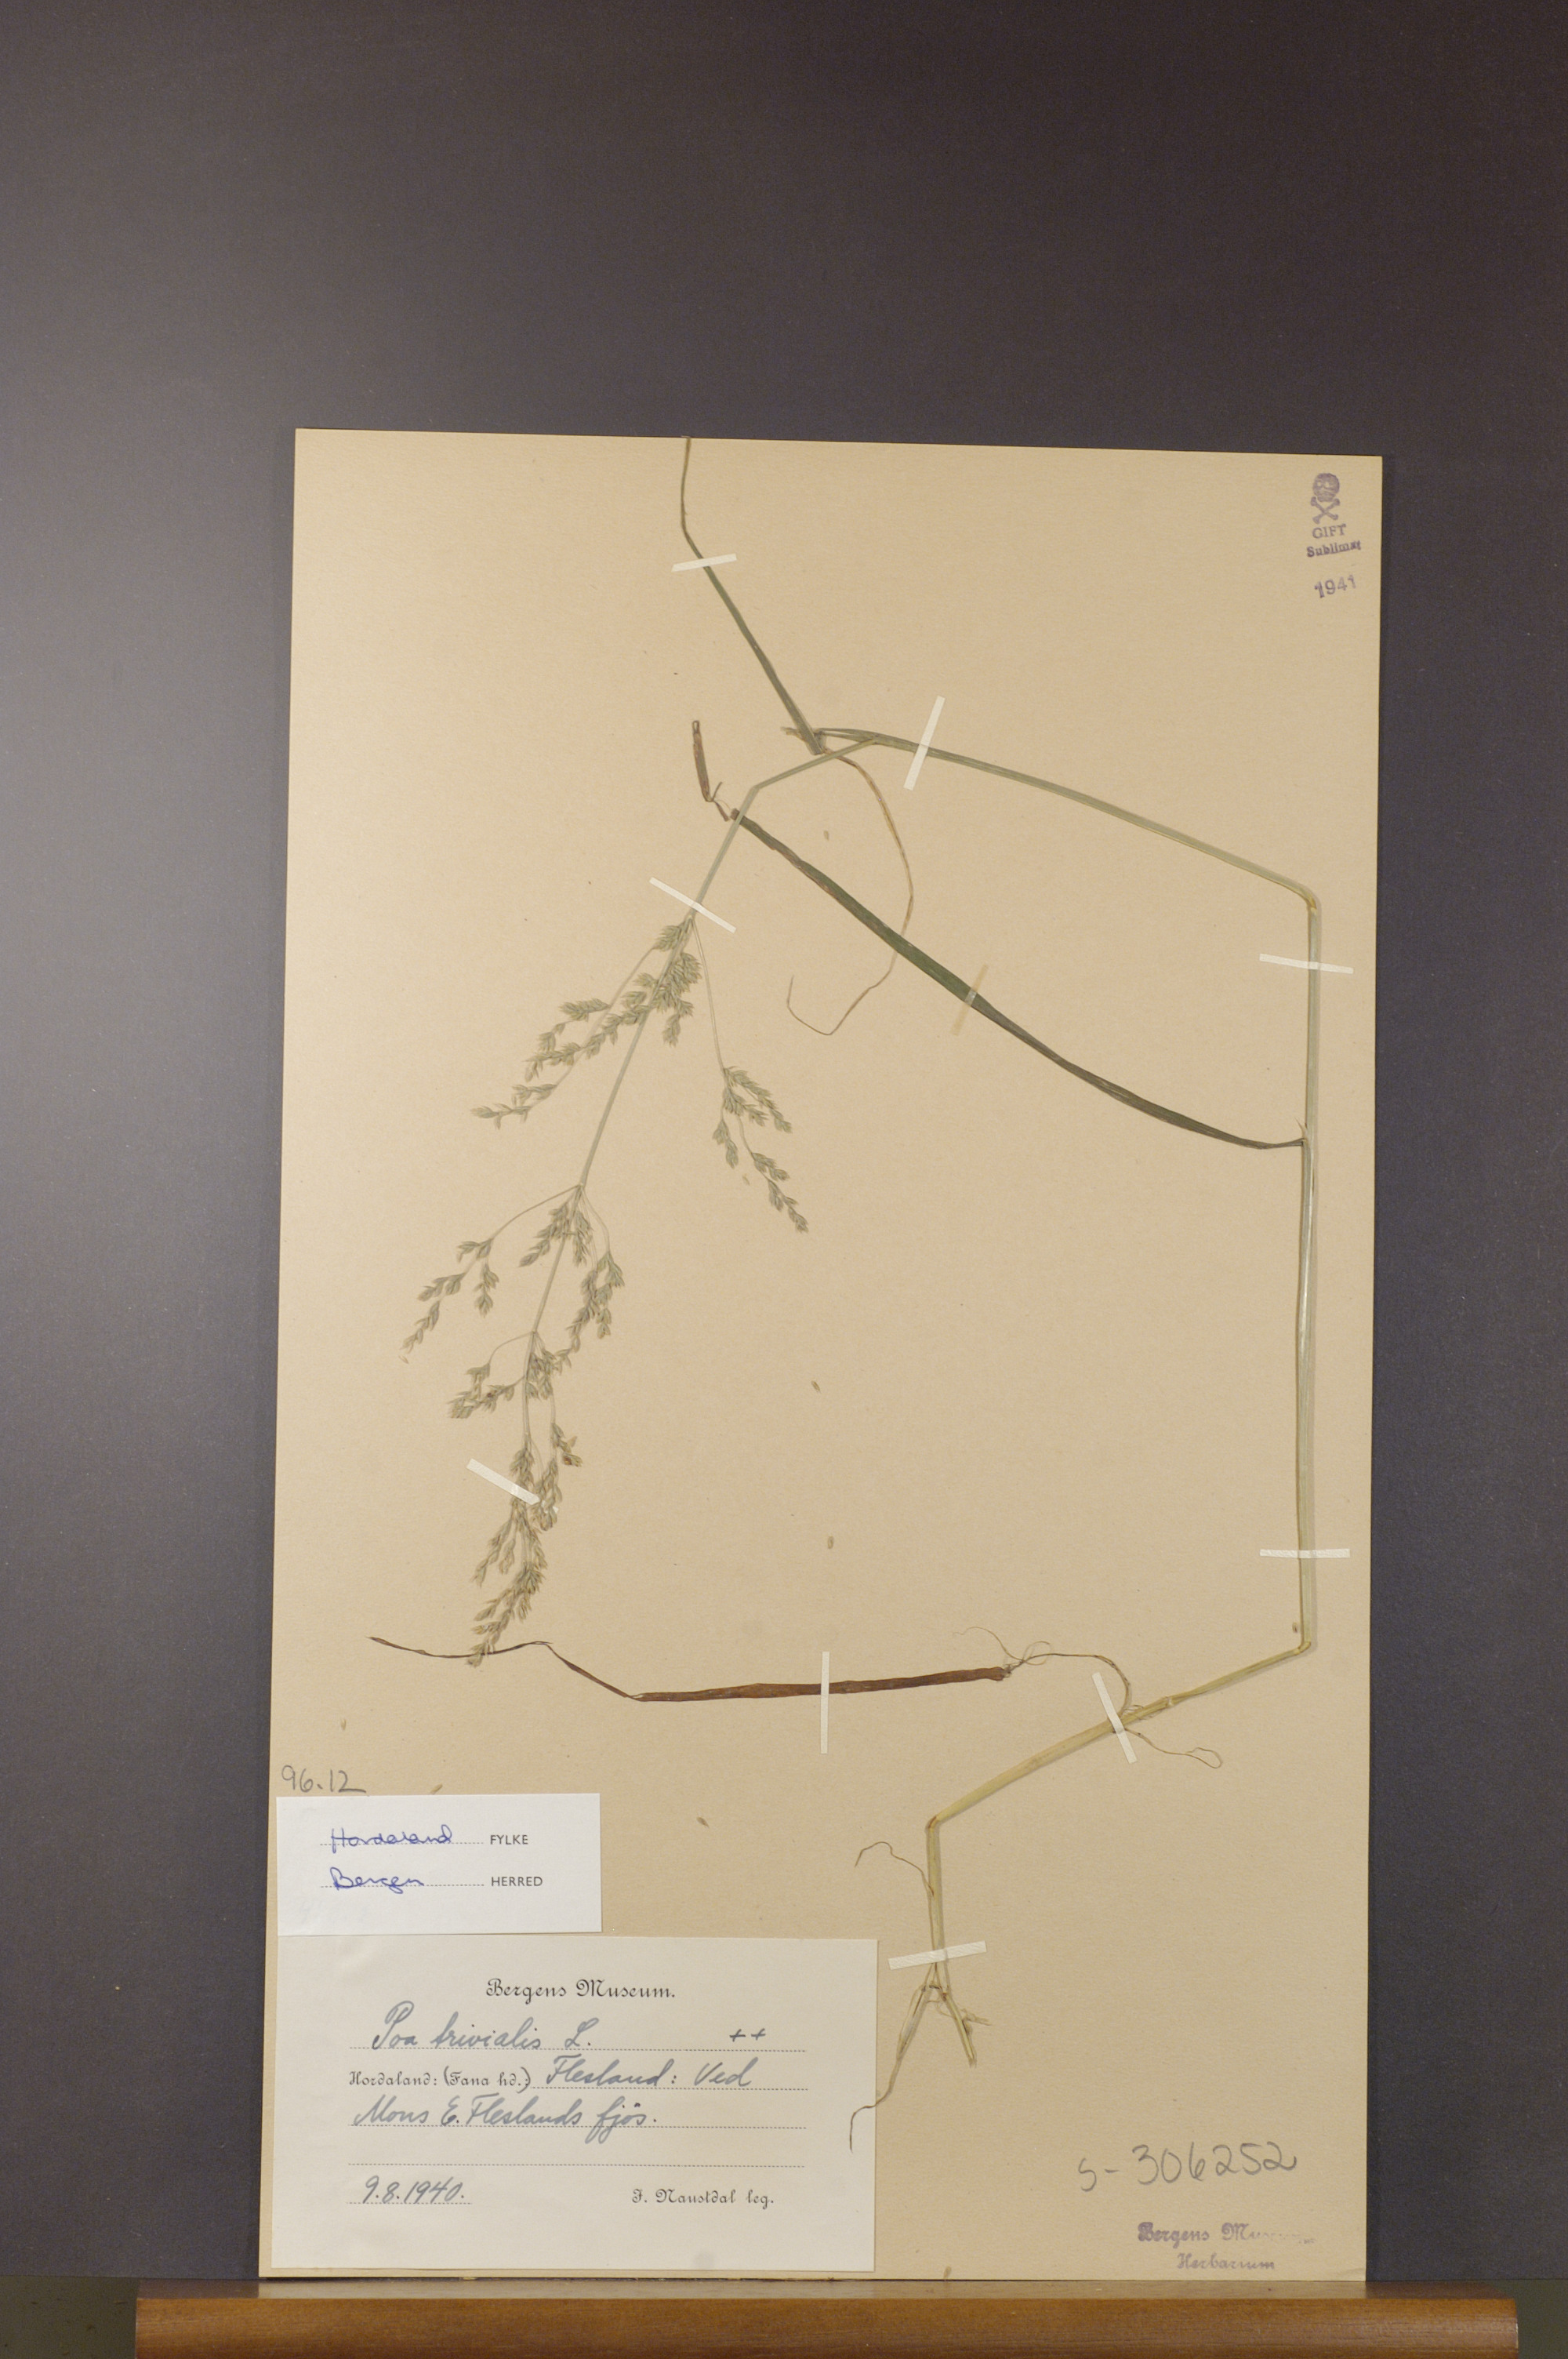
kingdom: Plantae
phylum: Tracheophyta
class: Liliopsida
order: Poales
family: Poaceae
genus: Poa
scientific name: Poa trivialis
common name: Rough bluegrass
